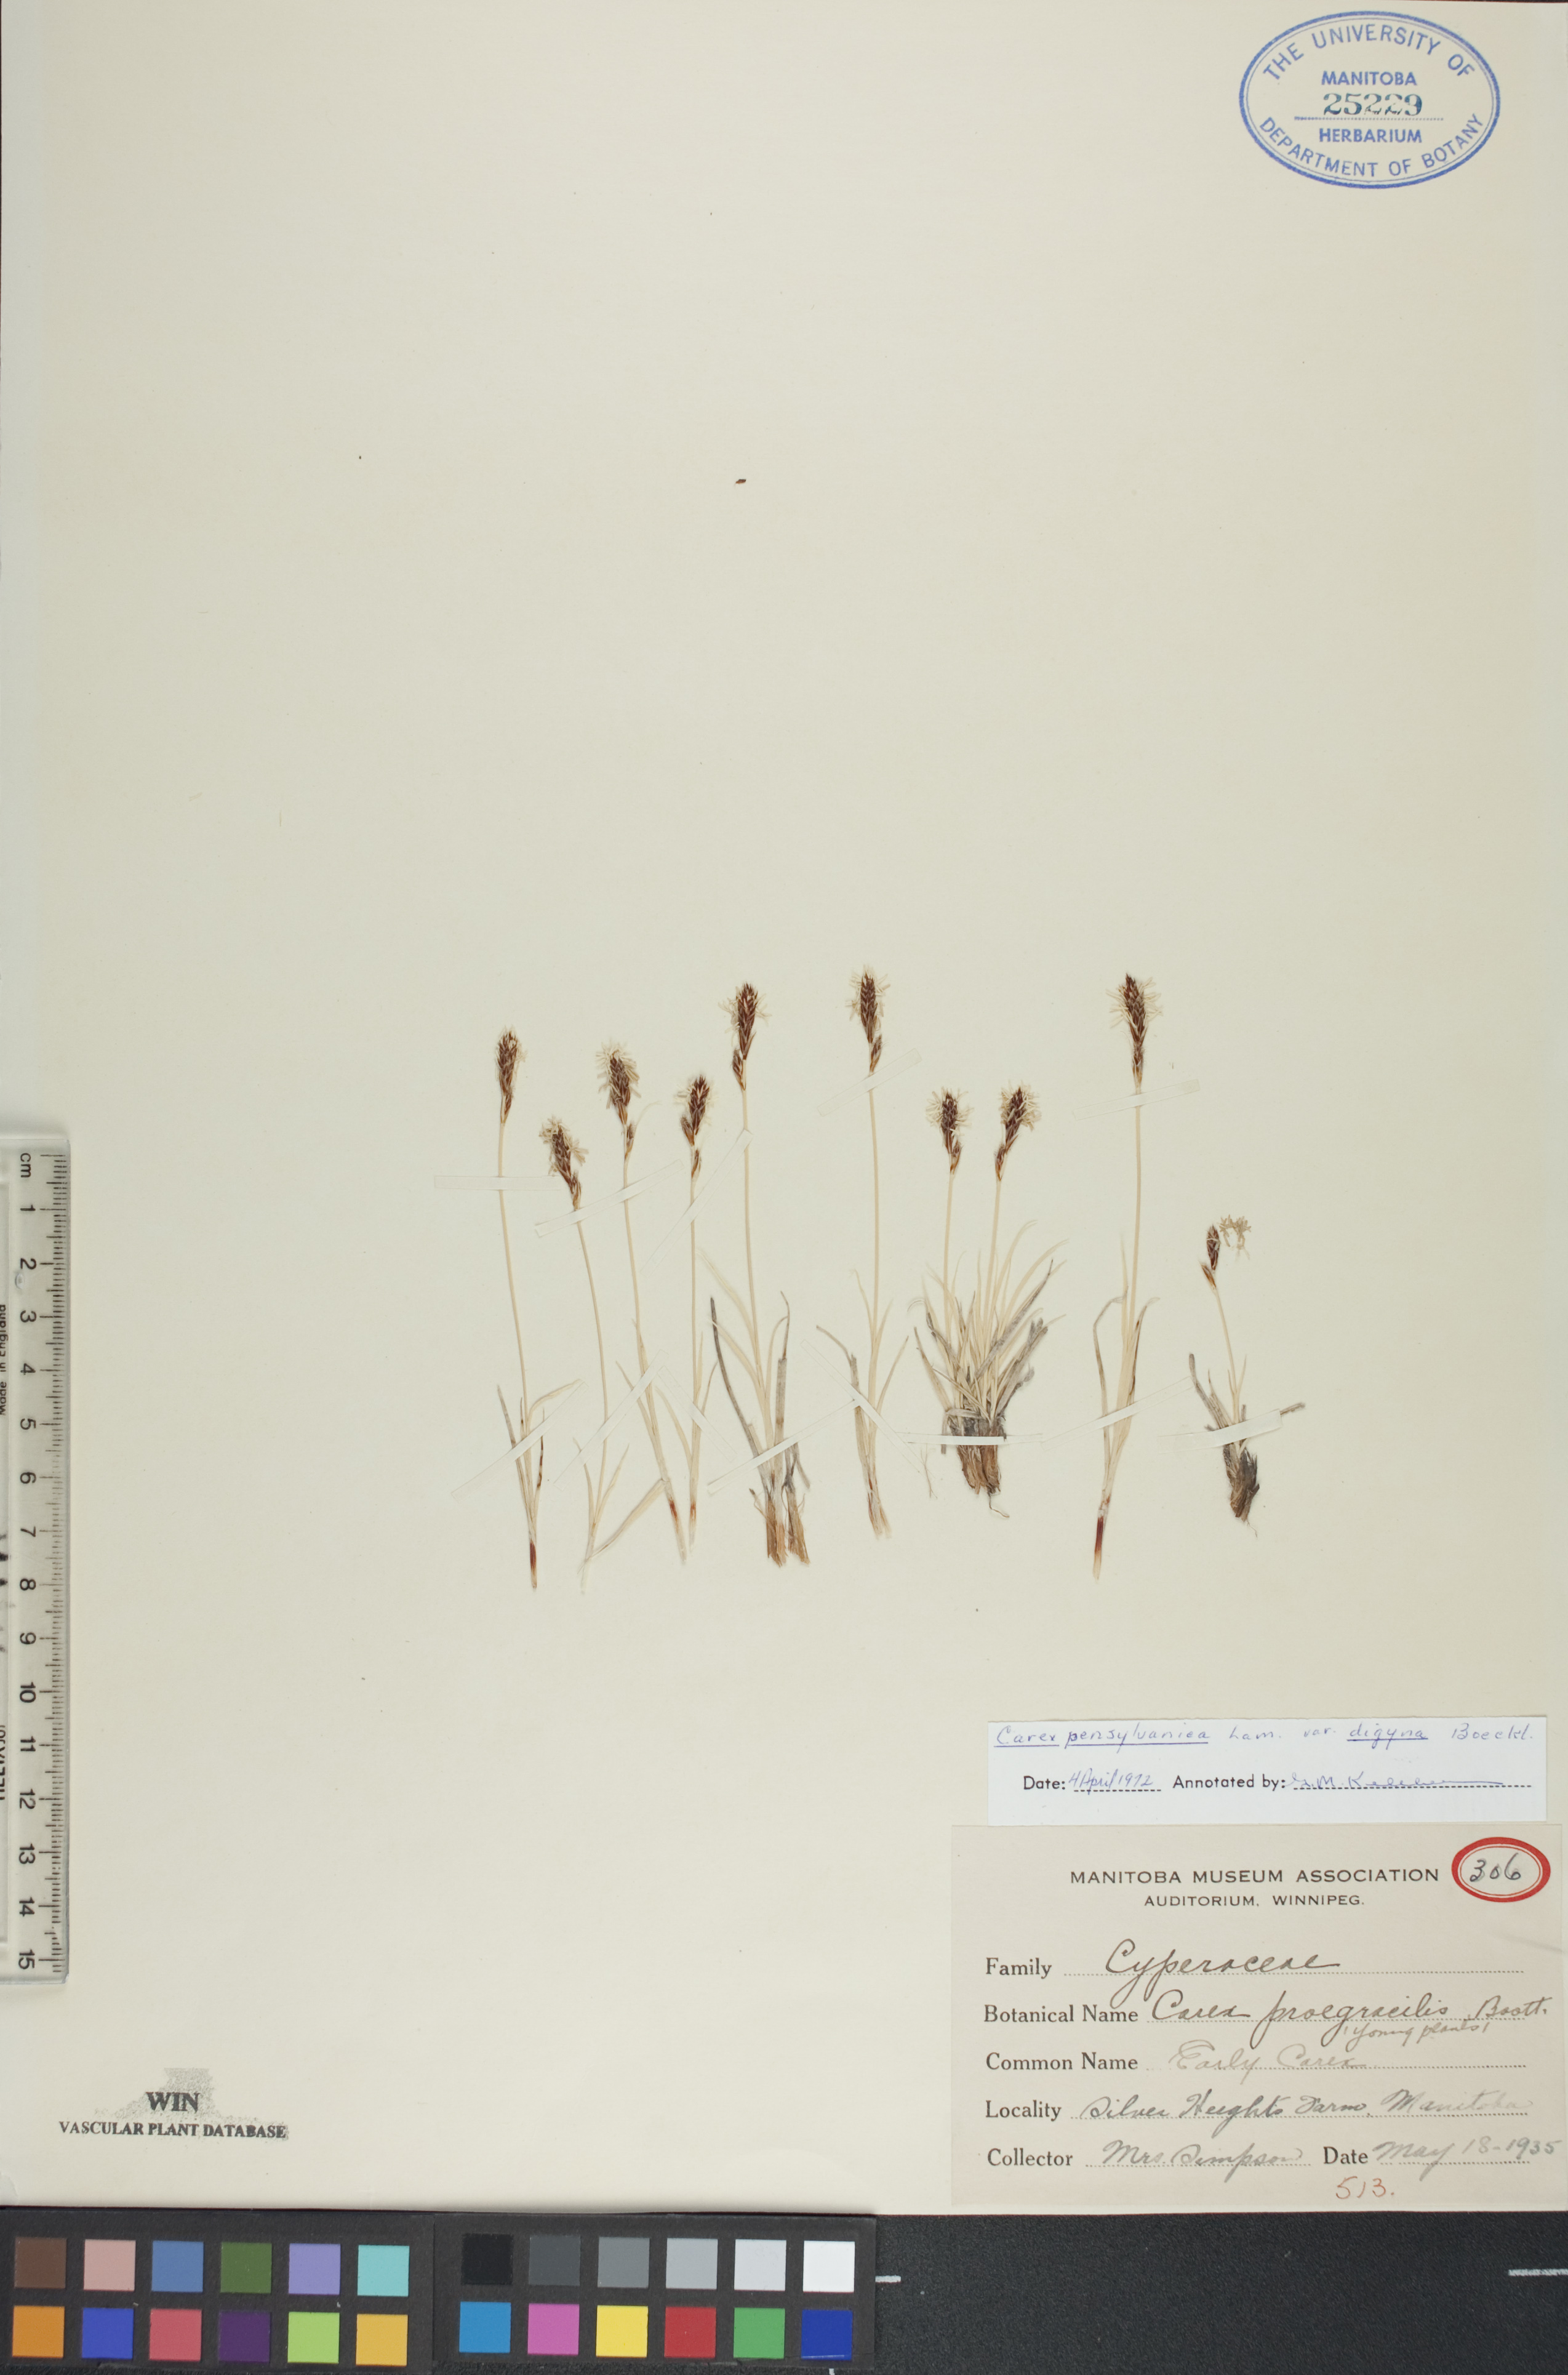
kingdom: Plantae
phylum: Tracheophyta
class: Liliopsida
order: Poales
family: Cyperaceae
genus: Carex
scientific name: Carex pensylvanica
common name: Common oak sedge
